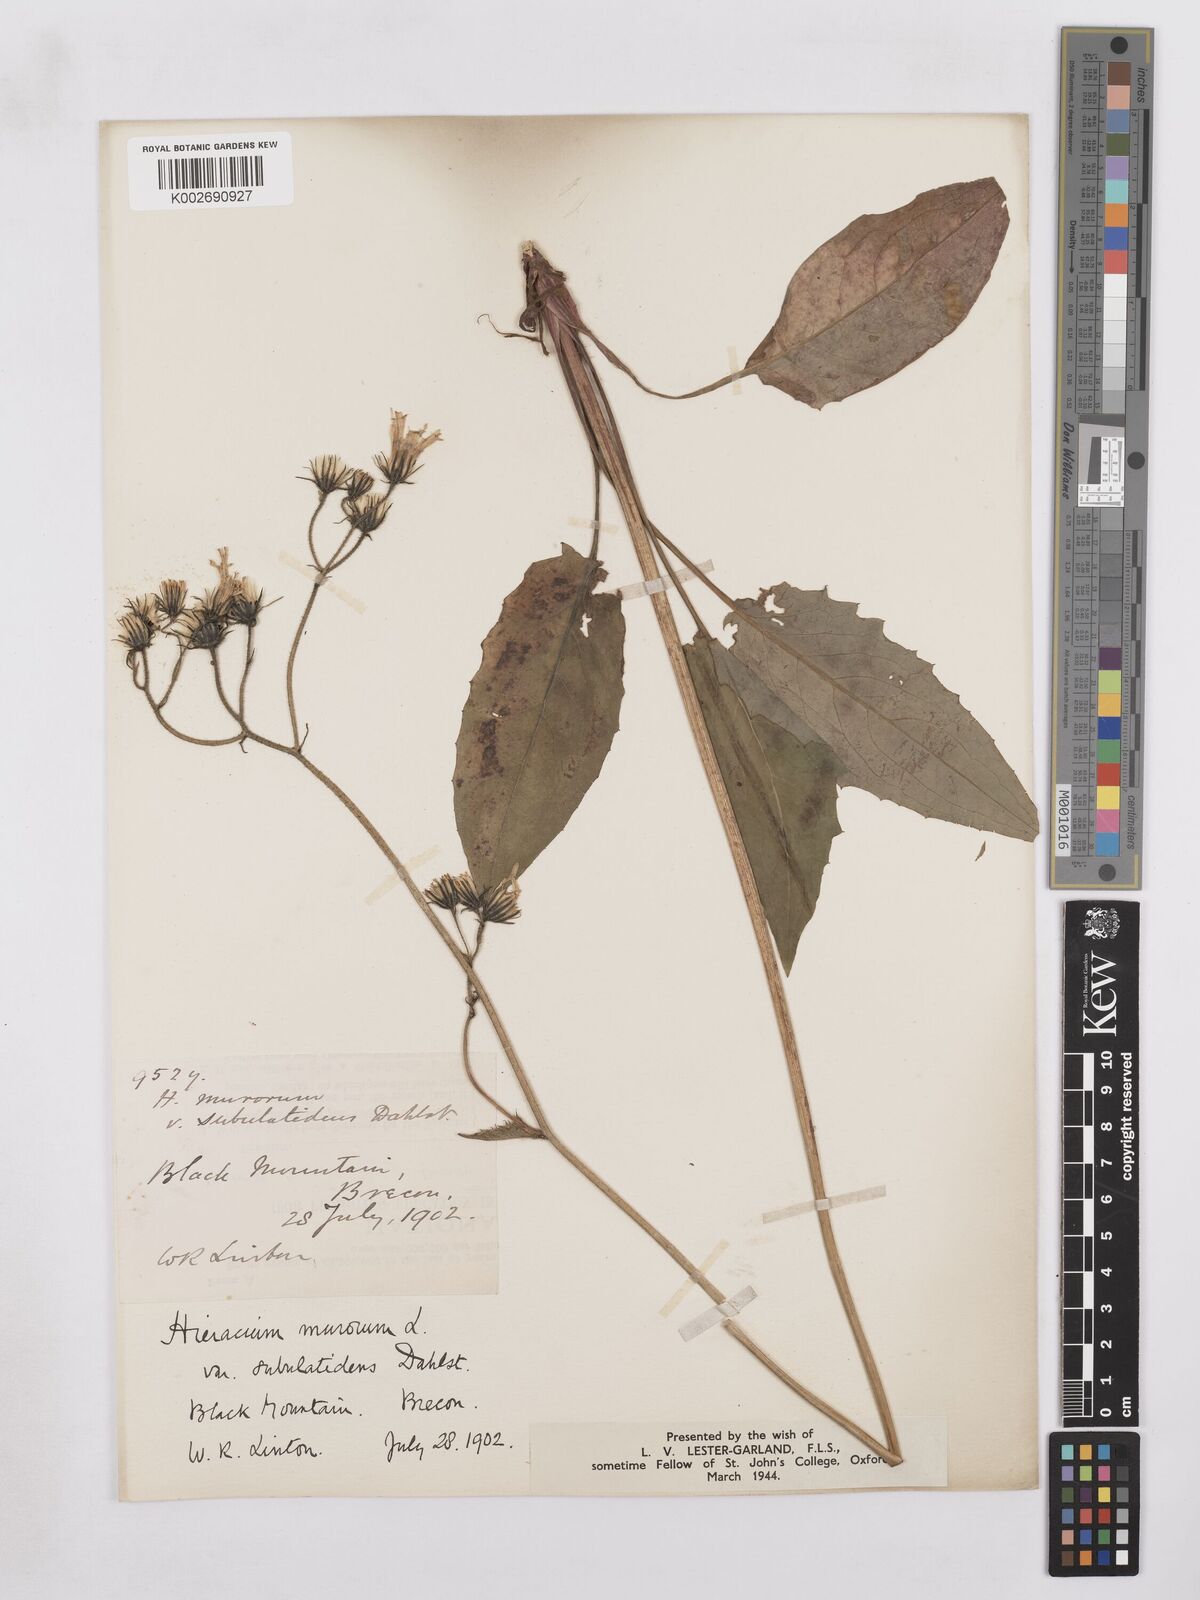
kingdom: Plantae
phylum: Tracheophyta
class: Magnoliopsida
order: Asterales
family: Asteraceae
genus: Hieracium
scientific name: Hieracium cuneifrons
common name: Wedge-leaved hawkweed
